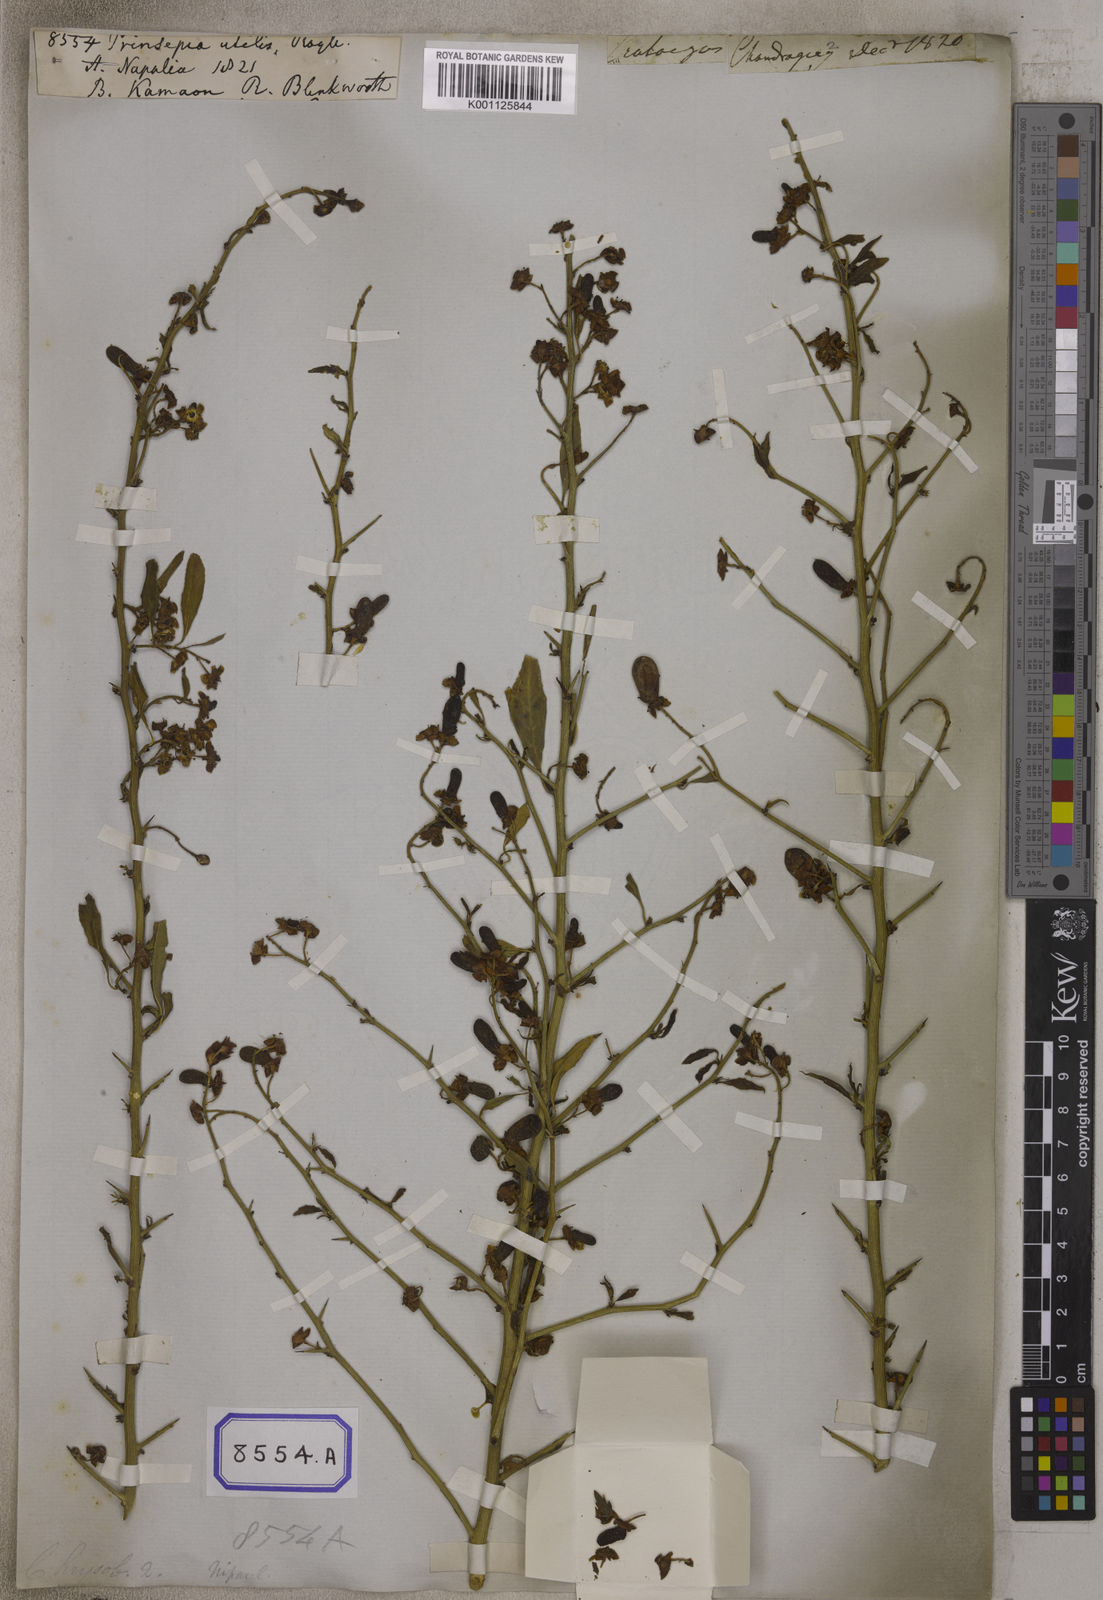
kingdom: Plantae
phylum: Tracheophyta
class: Magnoliopsida
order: Rosales
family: Rosaceae
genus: Prinsepia
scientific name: Prinsepia utilis
